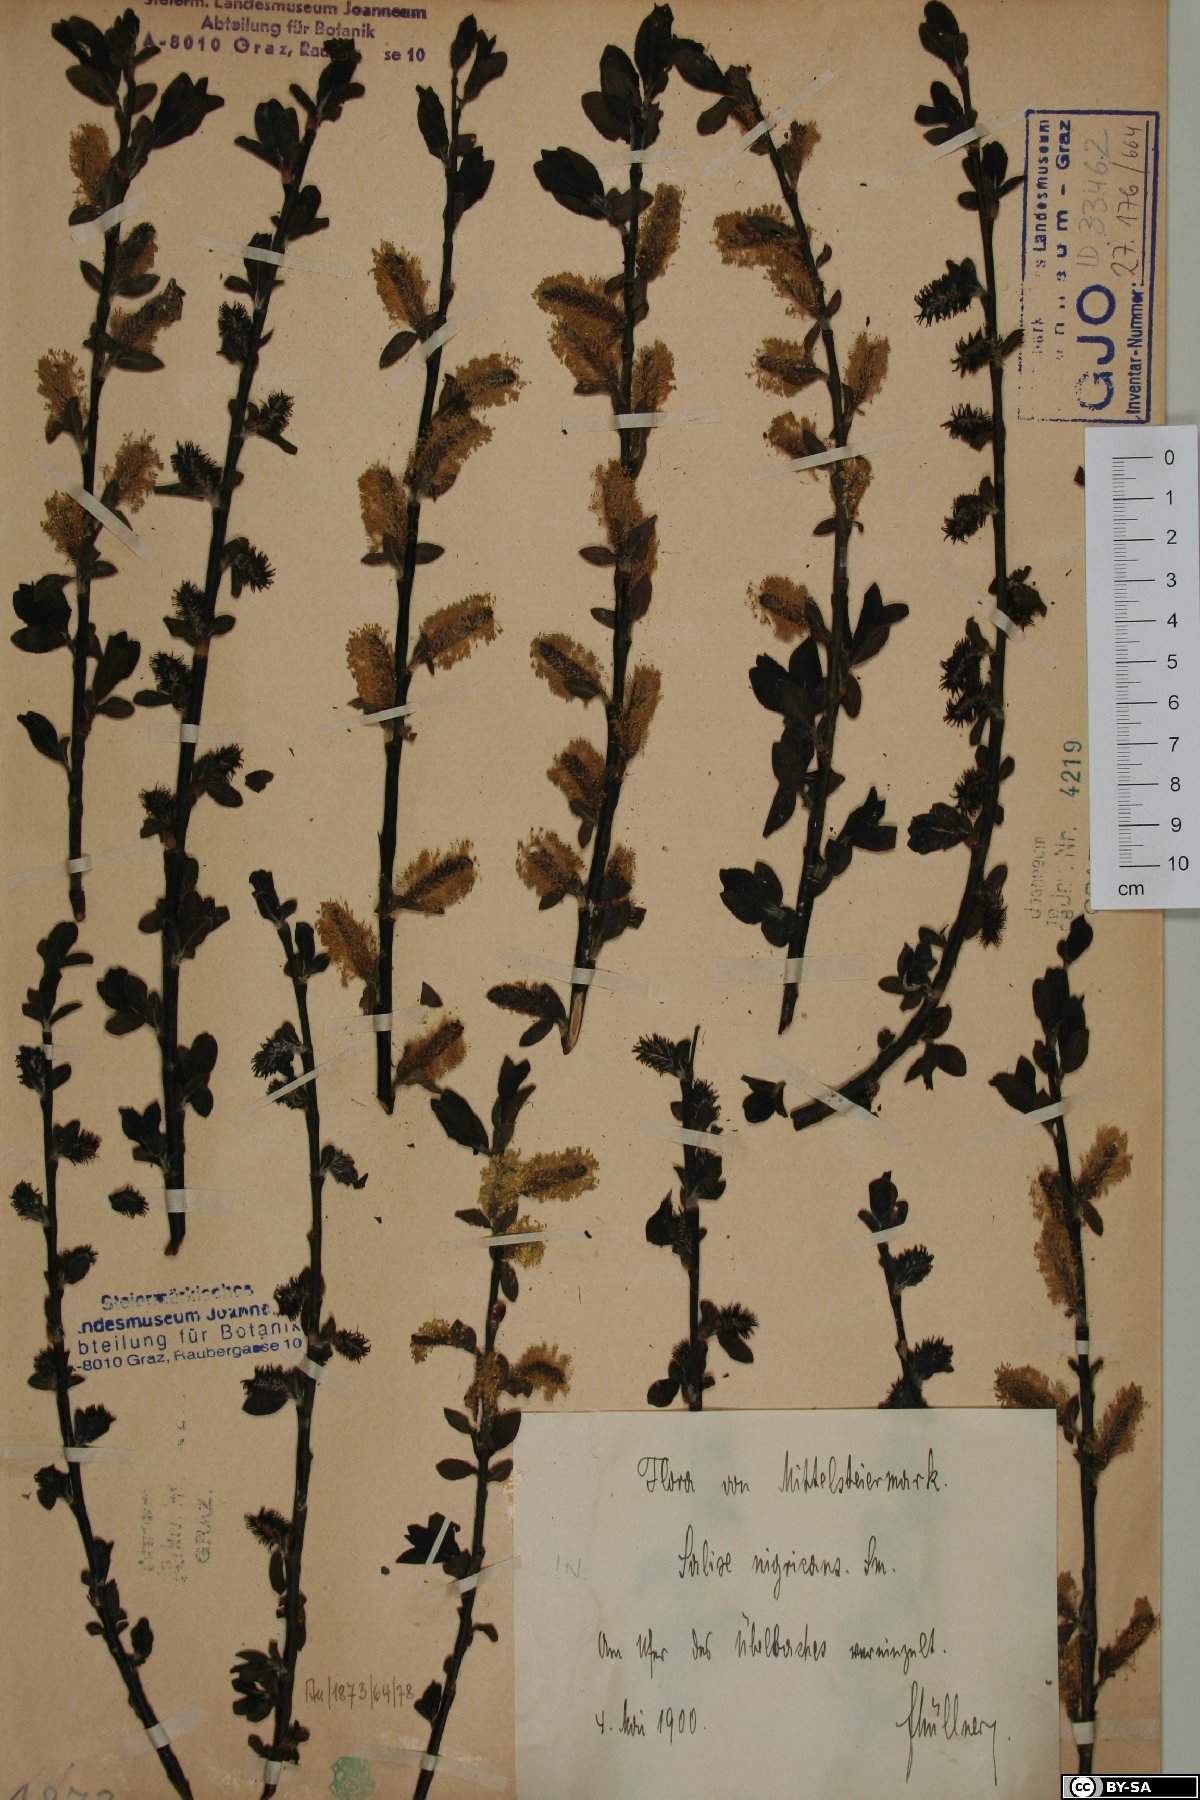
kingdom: Plantae
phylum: Tracheophyta
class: Magnoliopsida
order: Malpighiales
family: Salicaceae
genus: Salix
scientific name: Salix myrsinifolia
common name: Dark-leaved willow
